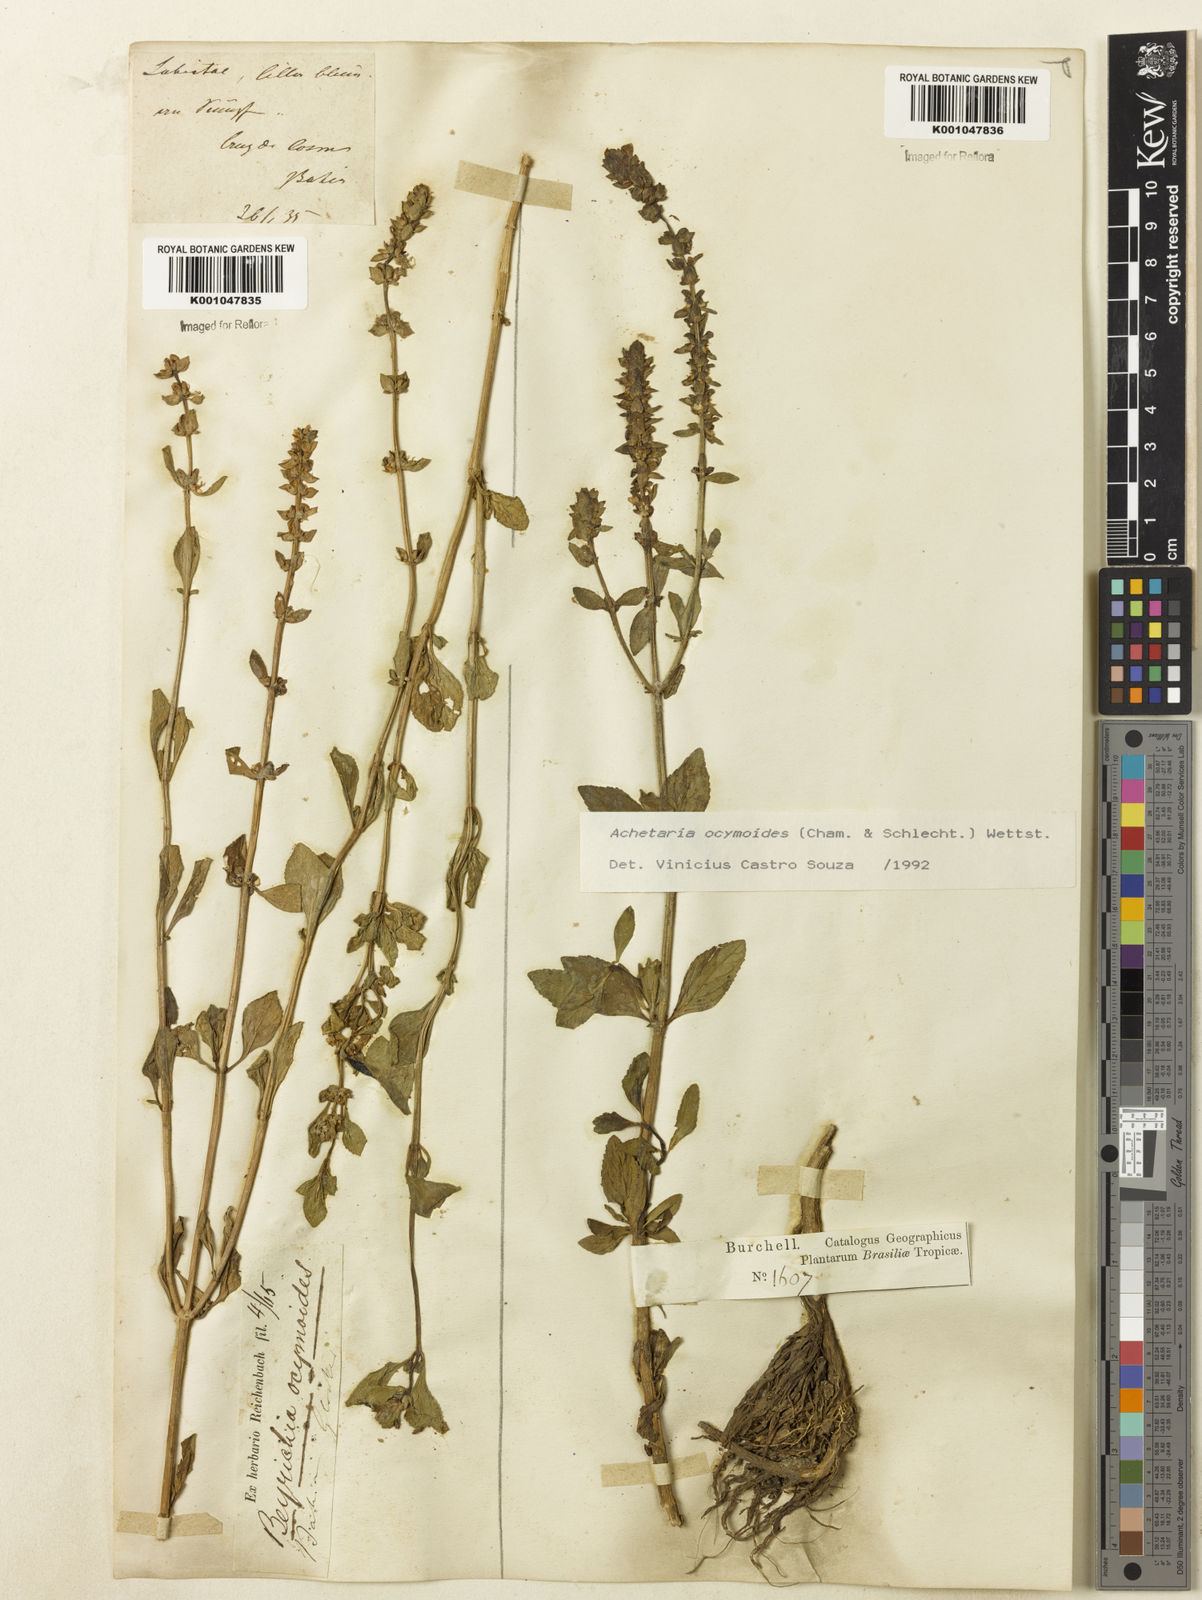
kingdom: Plantae
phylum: Tracheophyta
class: Magnoliopsida
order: Lamiales
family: Plantaginaceae
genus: Matourea
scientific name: Matourea ocymoides
